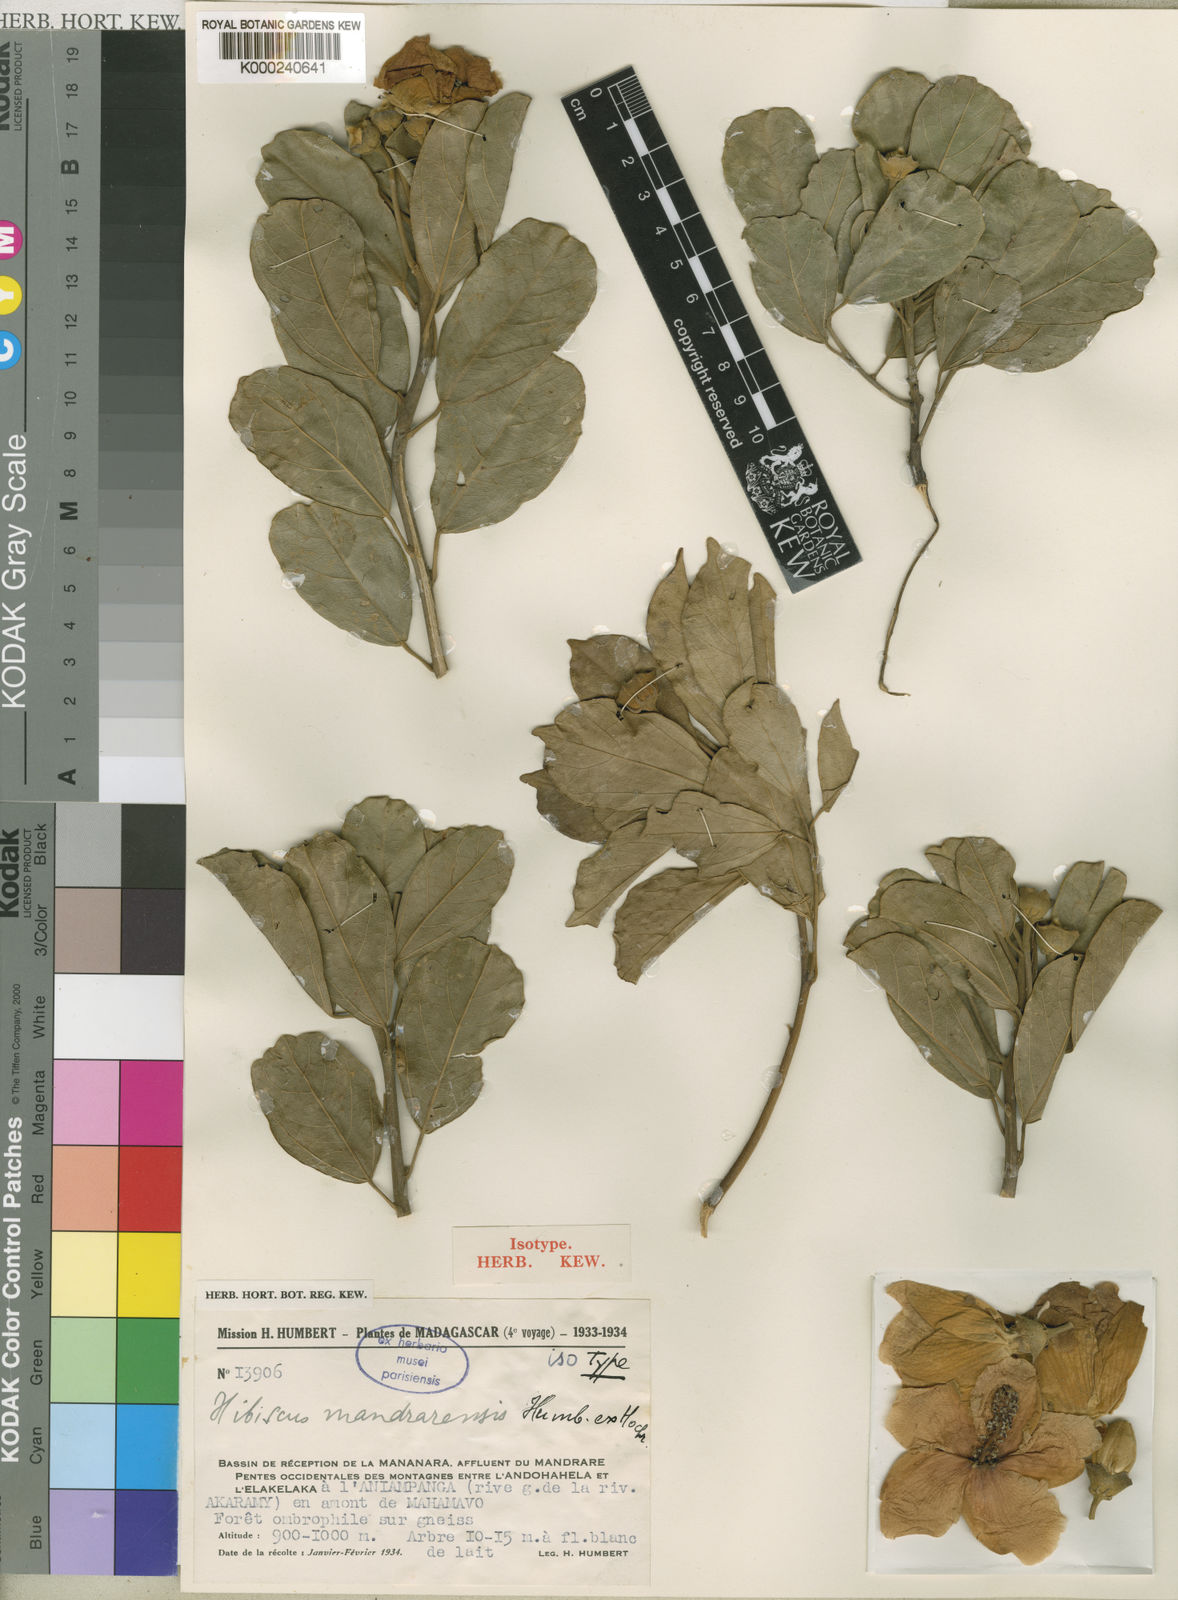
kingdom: Plantae
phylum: Tracheophyta
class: Magnoliopsida
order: Malvales
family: Malvaceae
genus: Hibiscus
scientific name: Hibiscus mangindranensis
